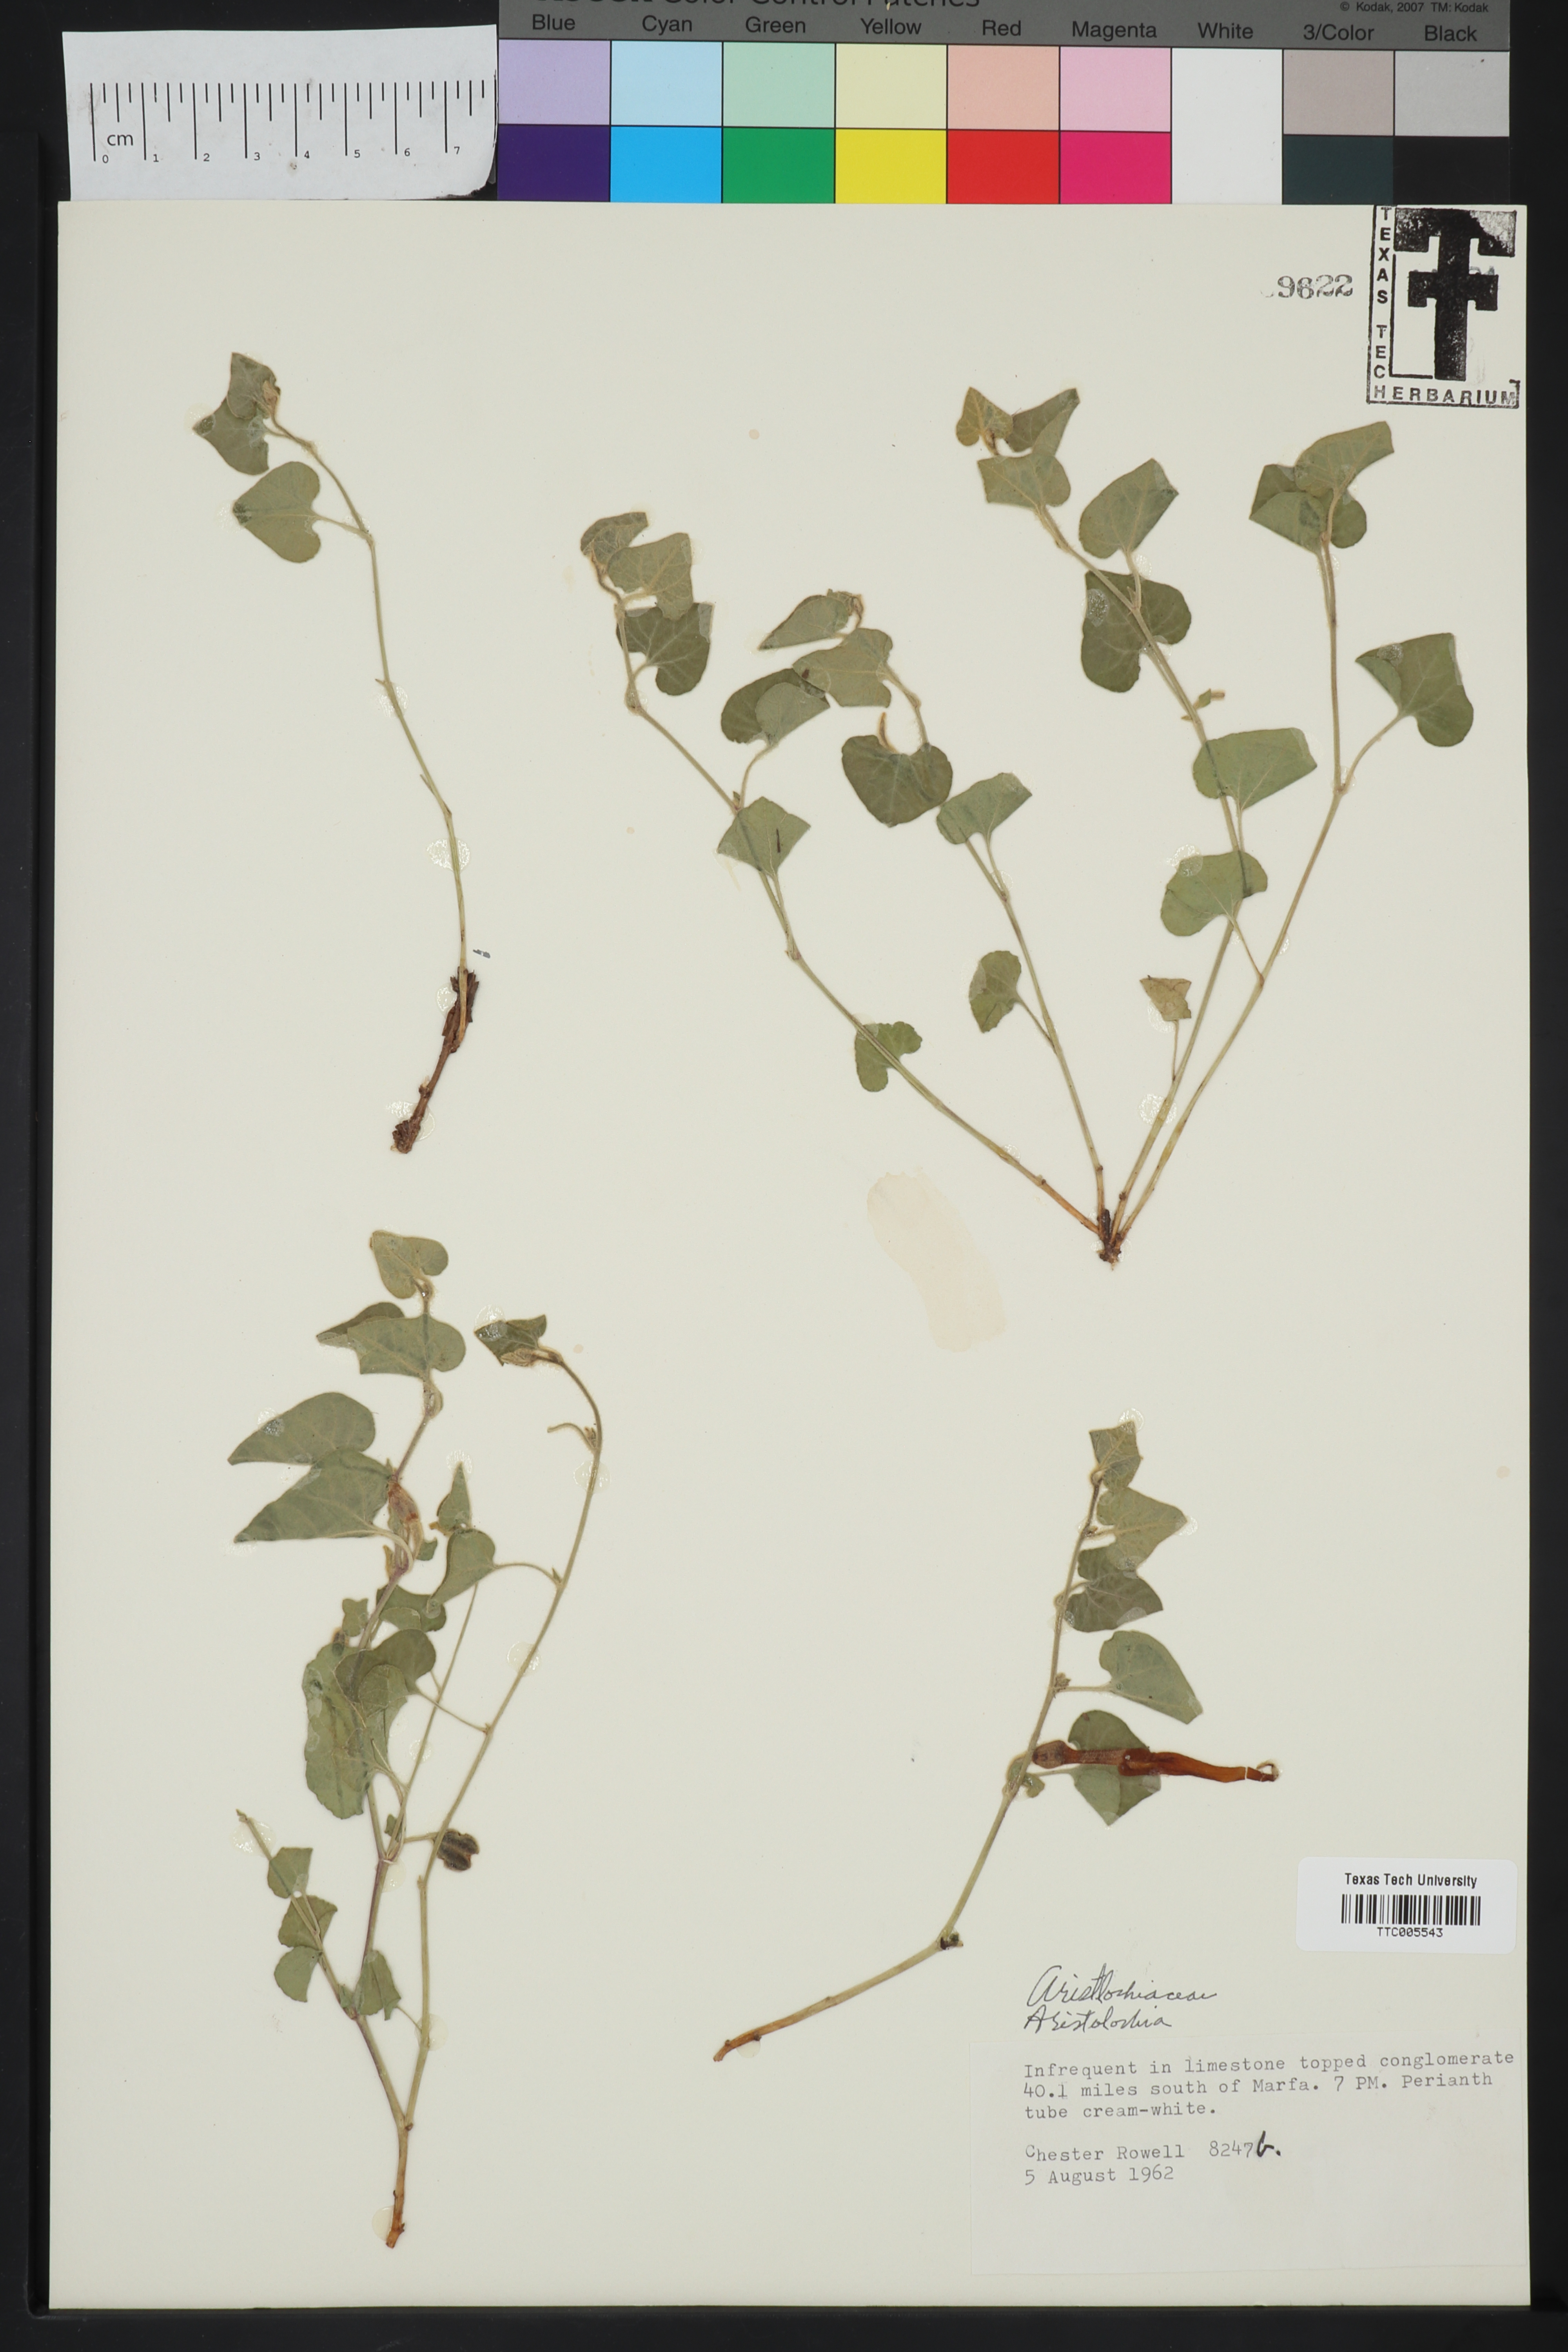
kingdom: Plantae
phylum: Tracheophyta
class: Magnoliopsida
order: Piperales
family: Aristolochiaceae
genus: Aristolochia
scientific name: Aristolochia
